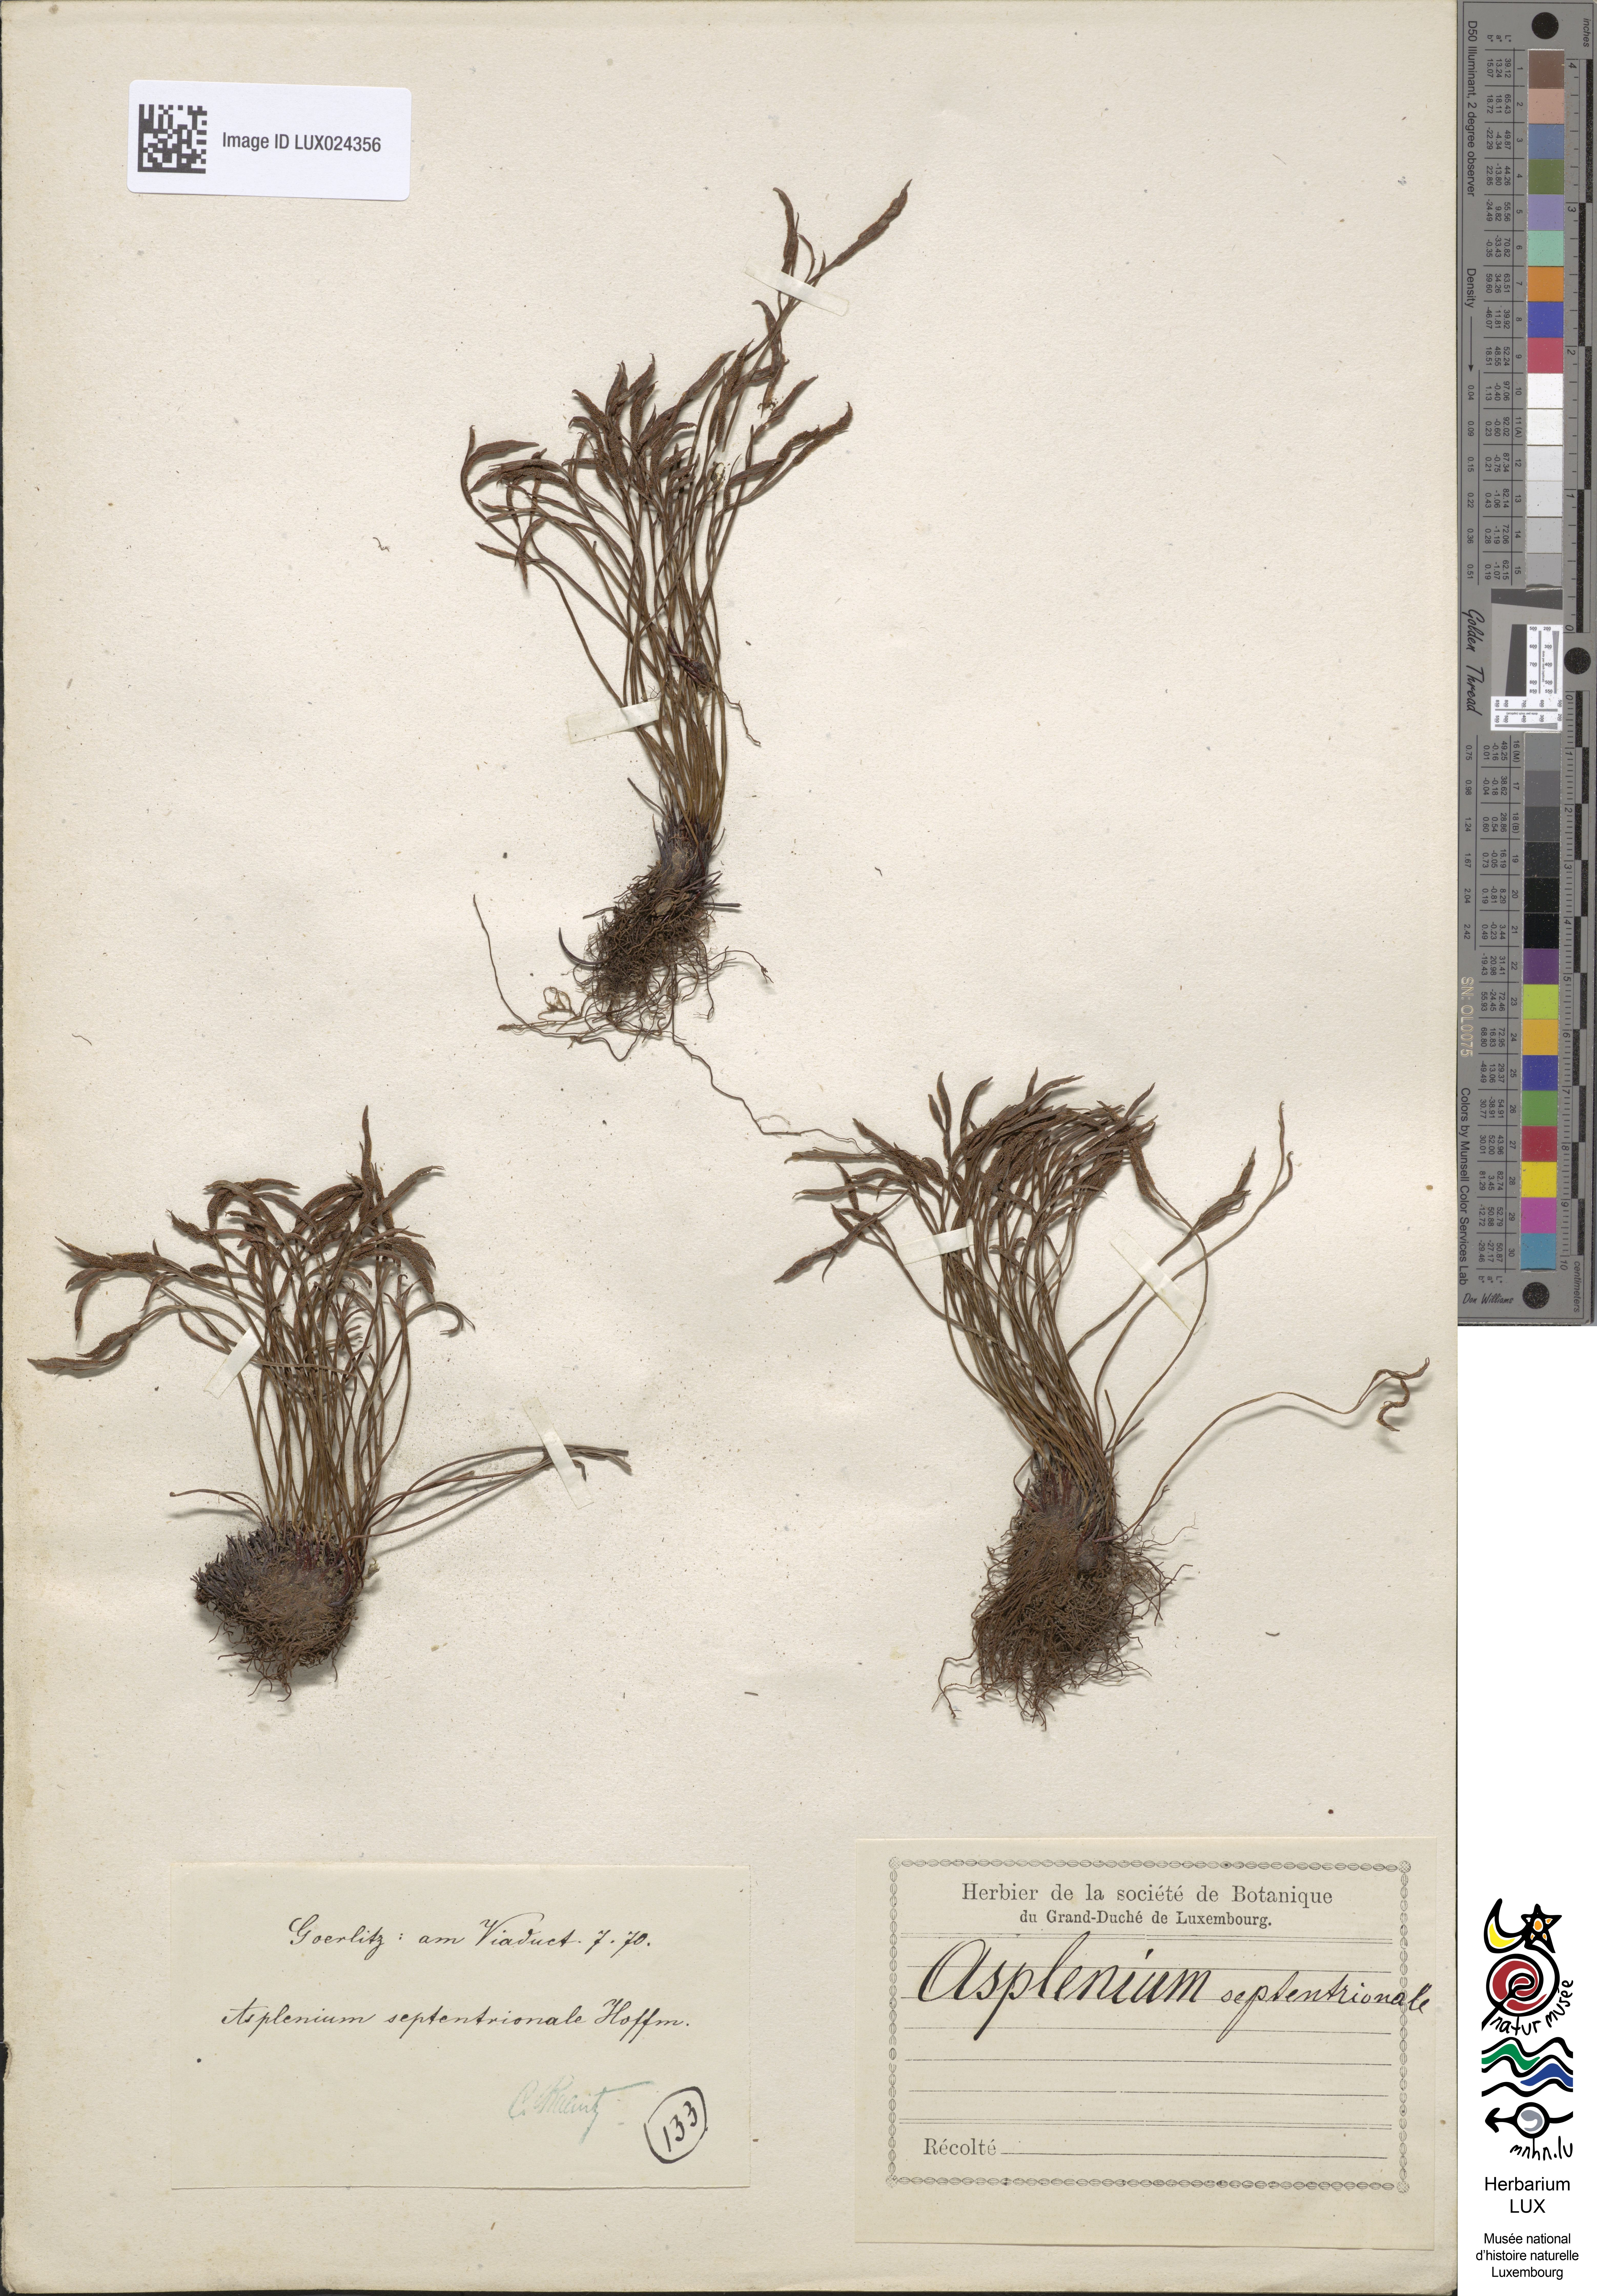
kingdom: Plantae
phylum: Tracheophyta
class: Polypodiopsida
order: Polypodiales
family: Aspleniaceae
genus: Asplenium
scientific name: Asplenium septentrionale
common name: Forked spleenwort
